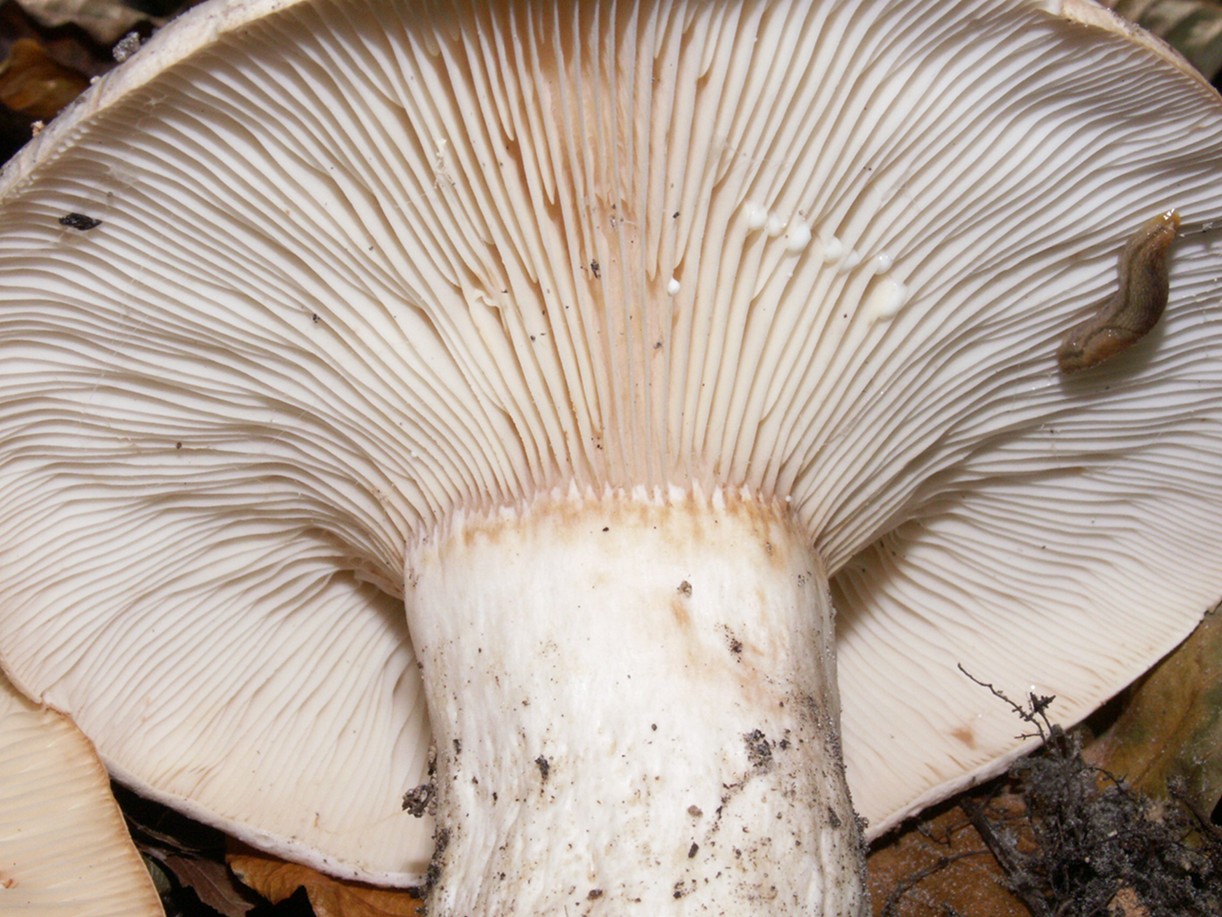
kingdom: Fungi
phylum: Basidiomycota
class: Agaricomycetes
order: Russulales
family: Russulaceae
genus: Lactarius
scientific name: Lactarius pallidus
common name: bleg mælkehat
